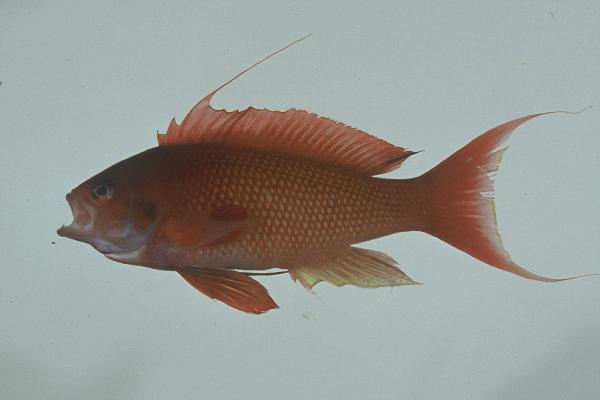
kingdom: Animalia
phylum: Chordata
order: Perciformes
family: Serranidae
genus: Pseudanthias
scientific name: Pseudanthias squamipinnis
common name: Scalefin anthias
